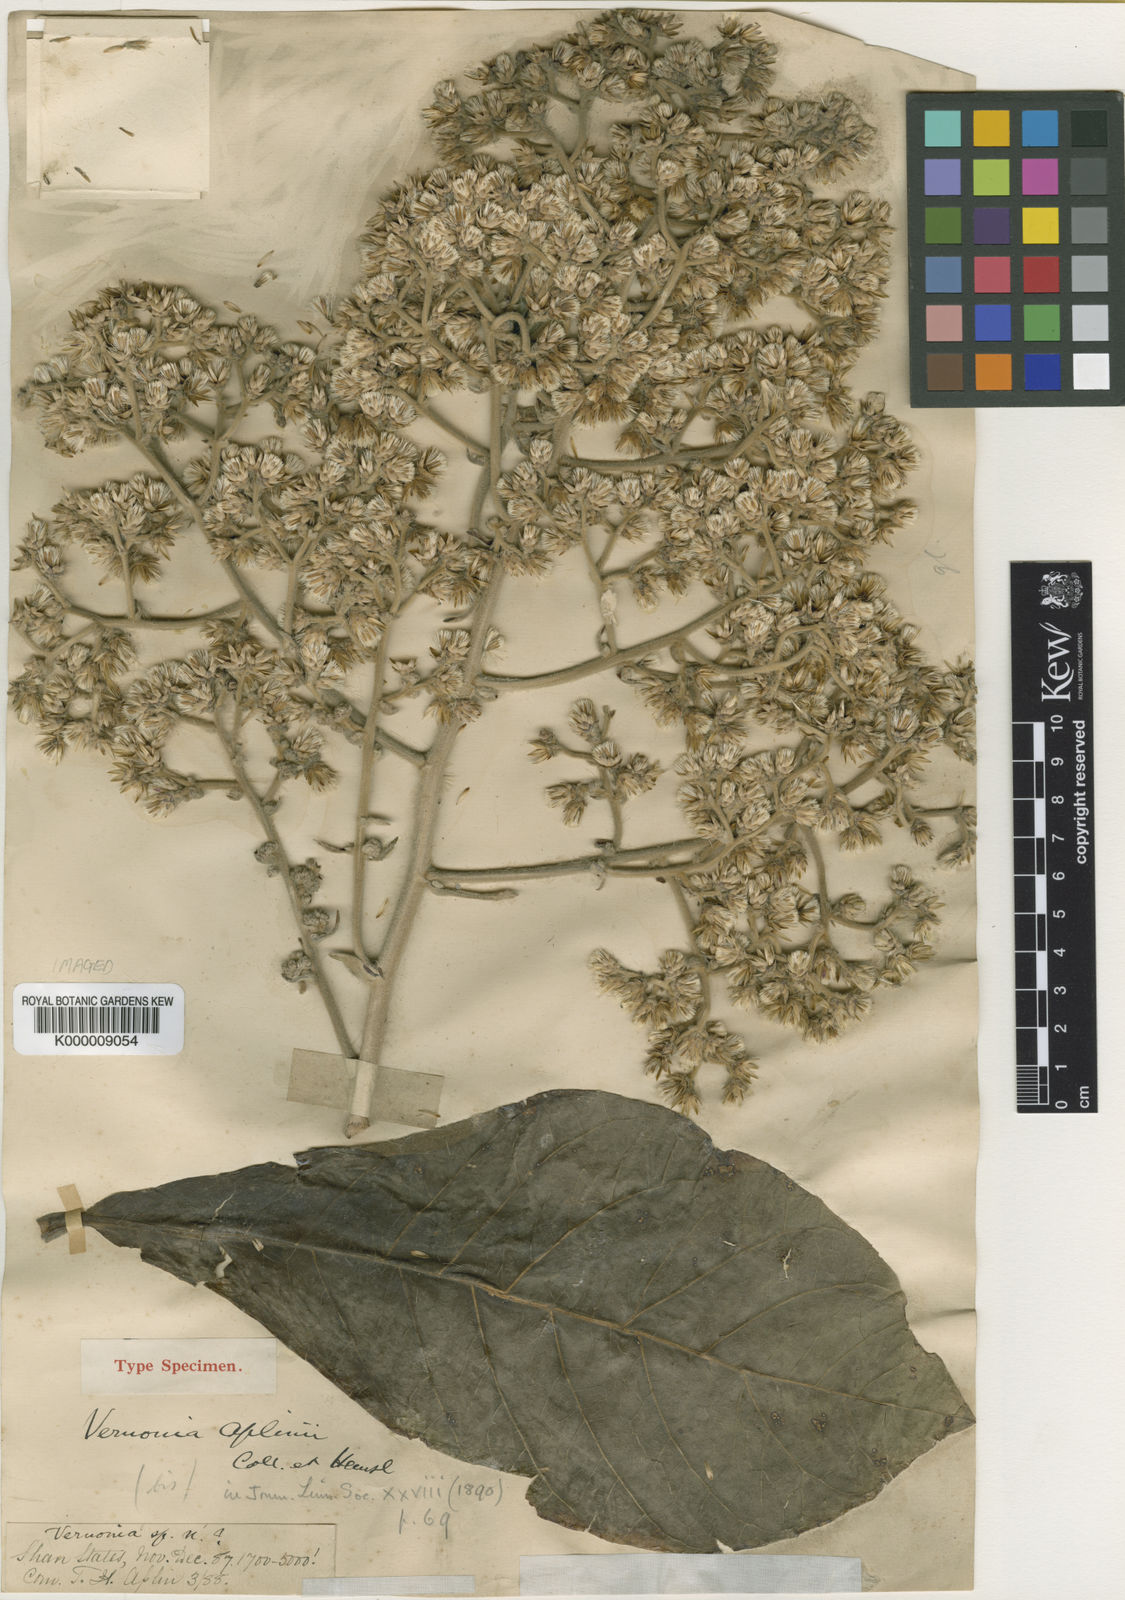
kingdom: Plantae
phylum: Tracheophyta
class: Magnoliopsida
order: Asterales
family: Asteraceae
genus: Monosis
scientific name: Monosis aplinii
